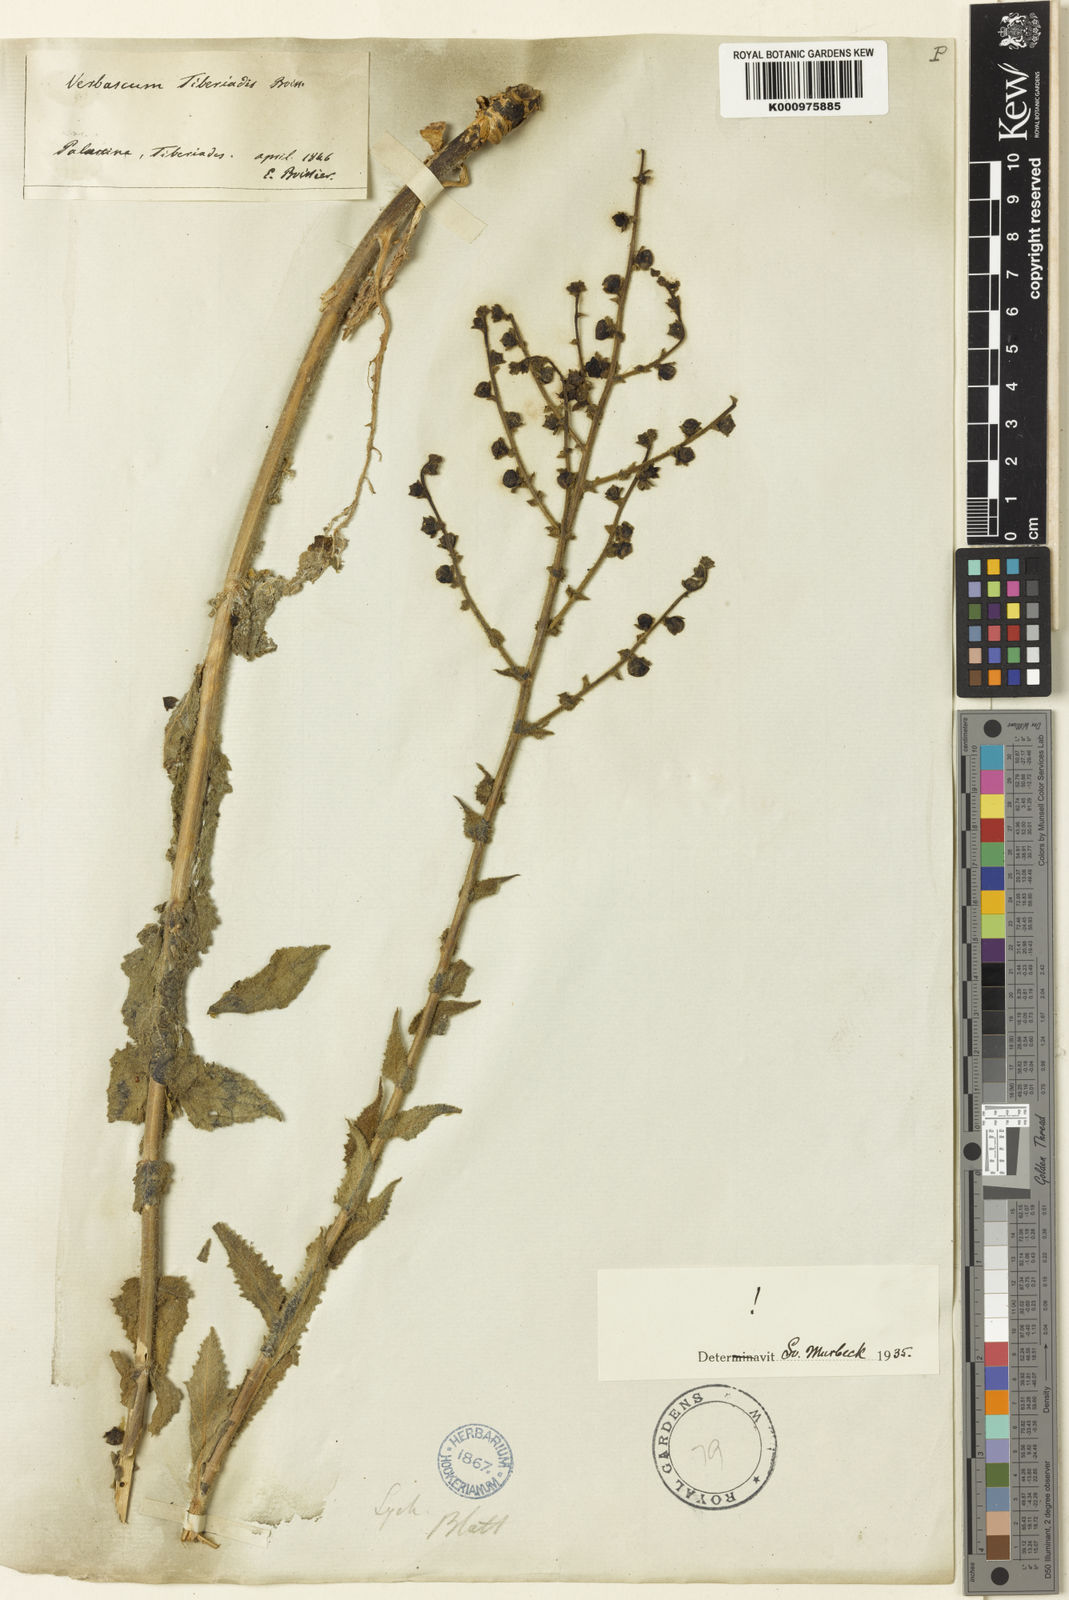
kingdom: Plantae
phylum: Tracheophyta
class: Magnoliopsida
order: Lamiales
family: Scrophulariaceae
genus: Verbascum
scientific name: Verbascum tiberiadis
